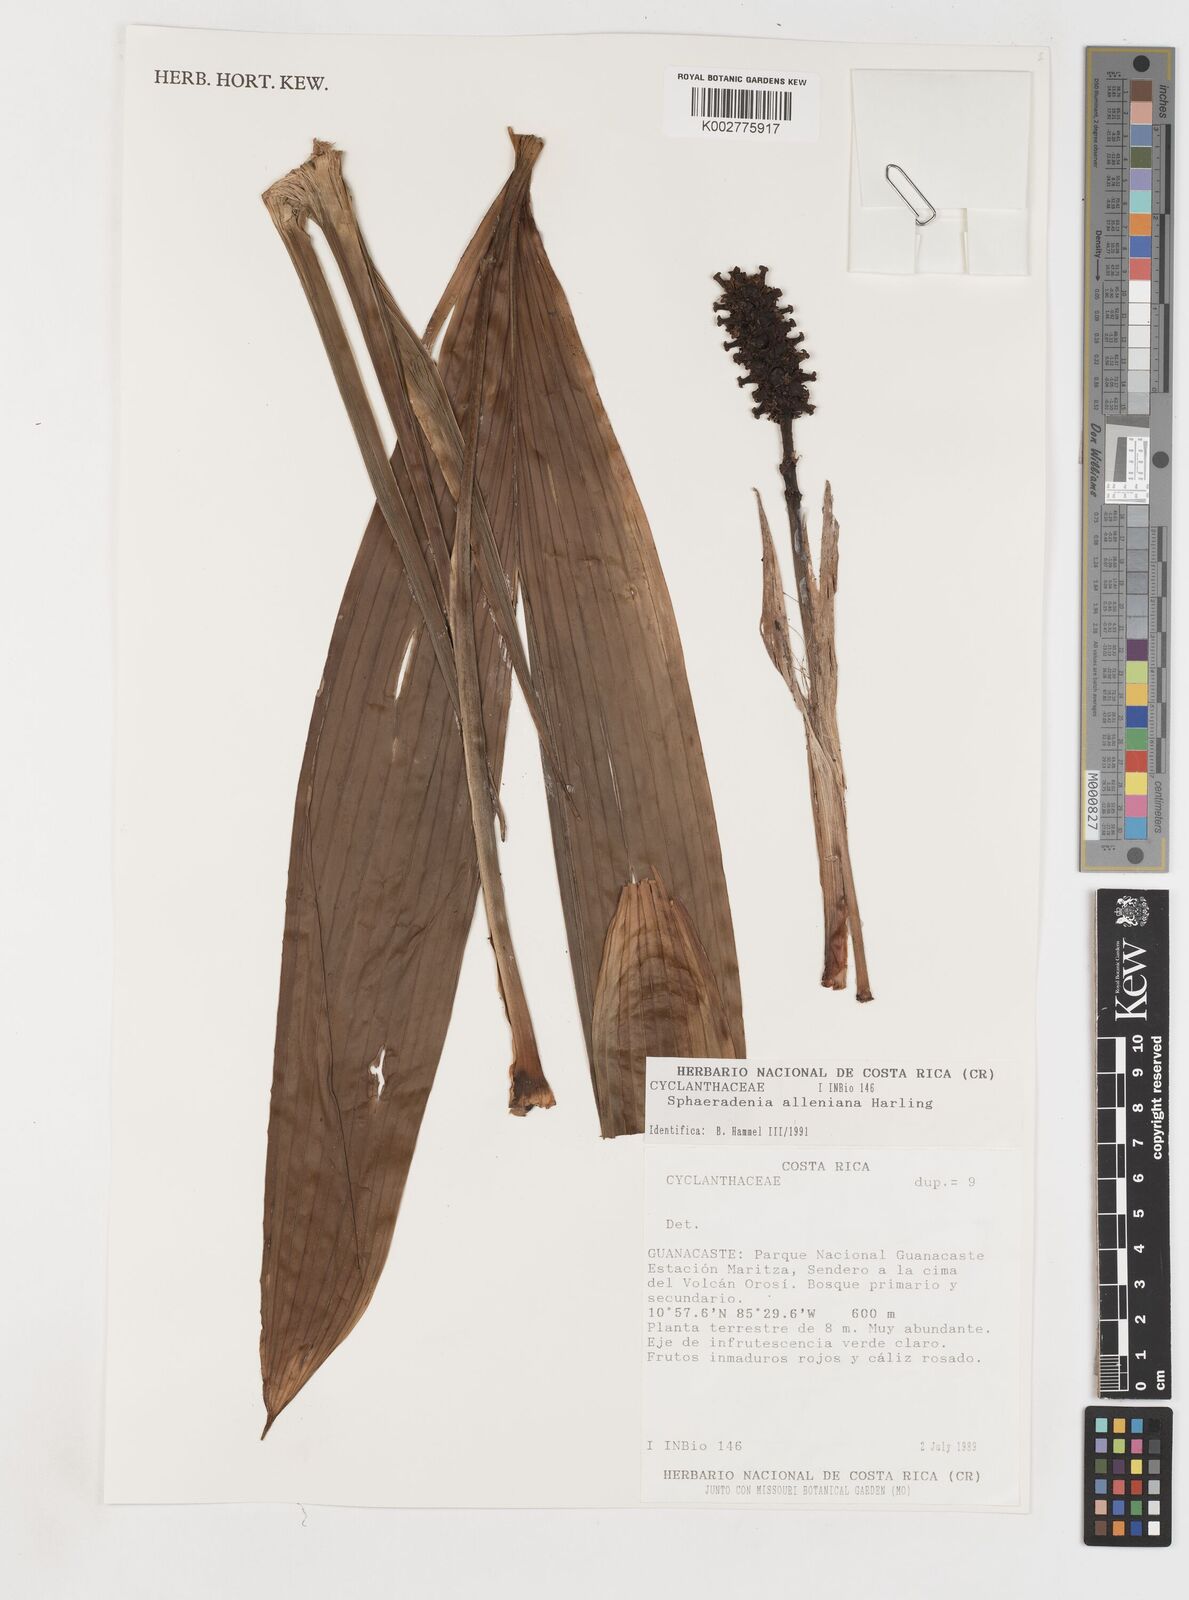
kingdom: Plantae
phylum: Tracheophyta
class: Liliopsida
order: Pandanales
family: Cyclanthaceae
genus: Sphaeradenia
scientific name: Sphaeradenia alleniana
